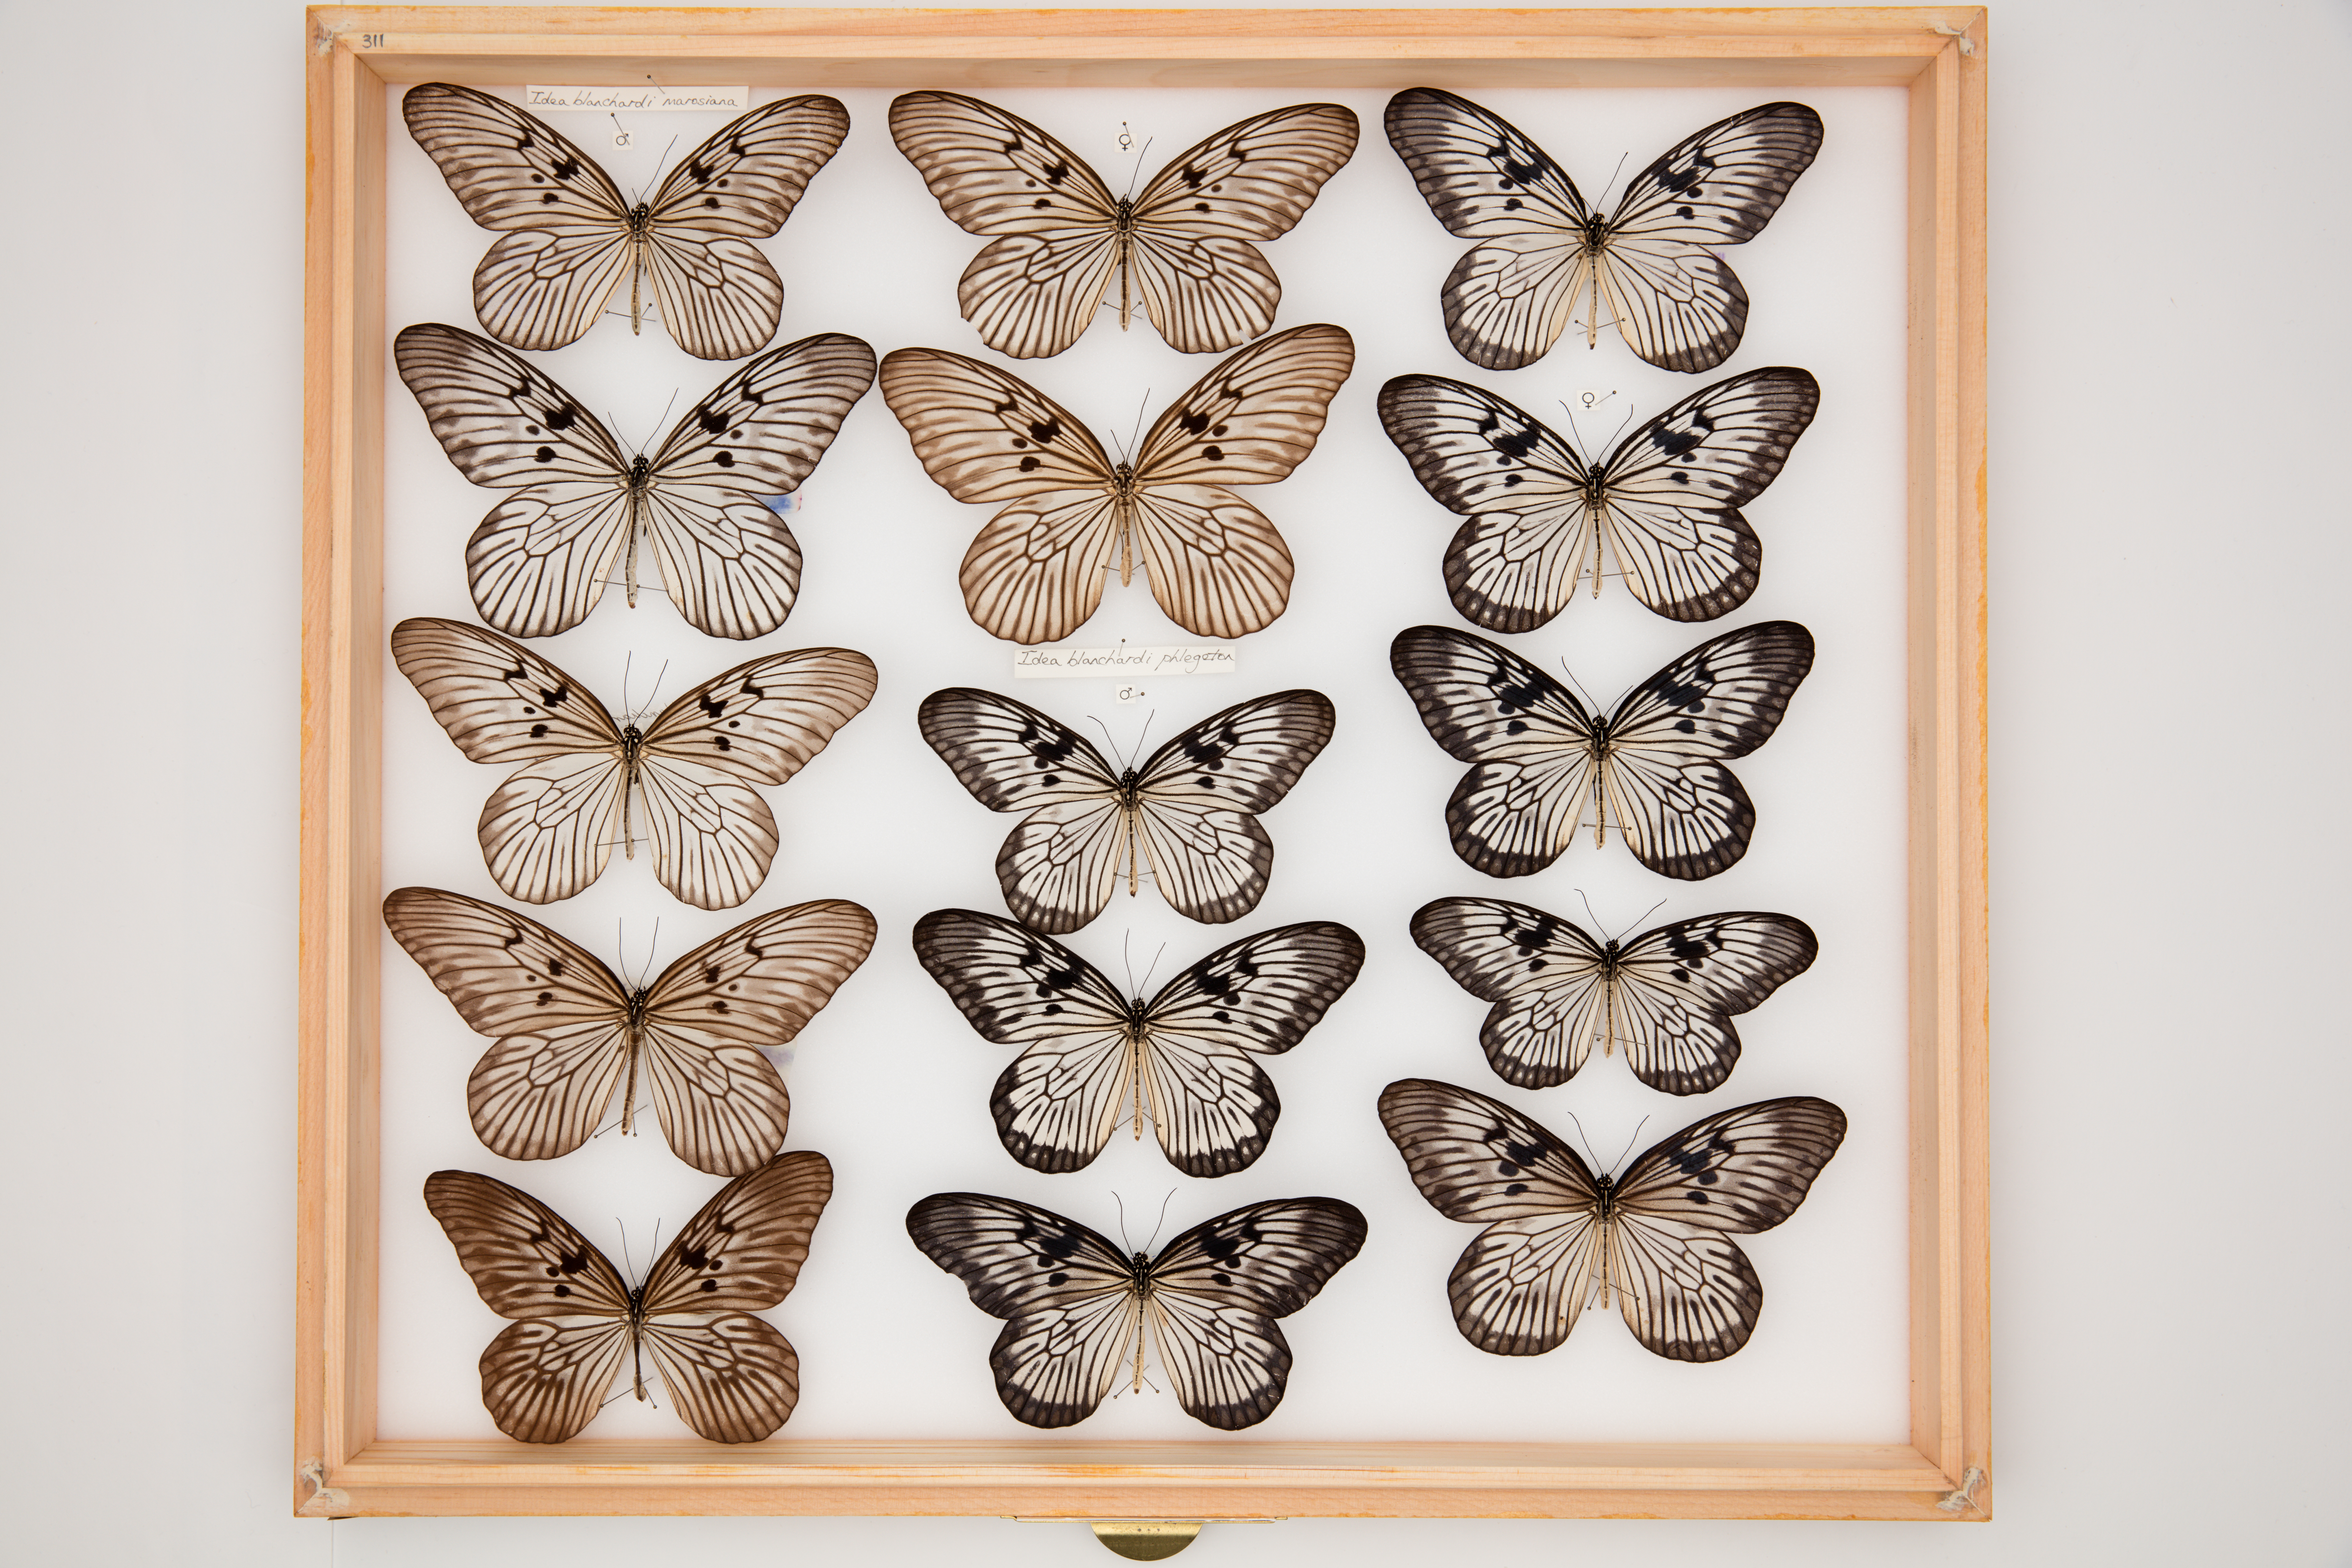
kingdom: Animalia
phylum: Arthropoda
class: Insecta
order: Lepidoptera
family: Nymphalidae
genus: Idea
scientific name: Idea blanchardii
